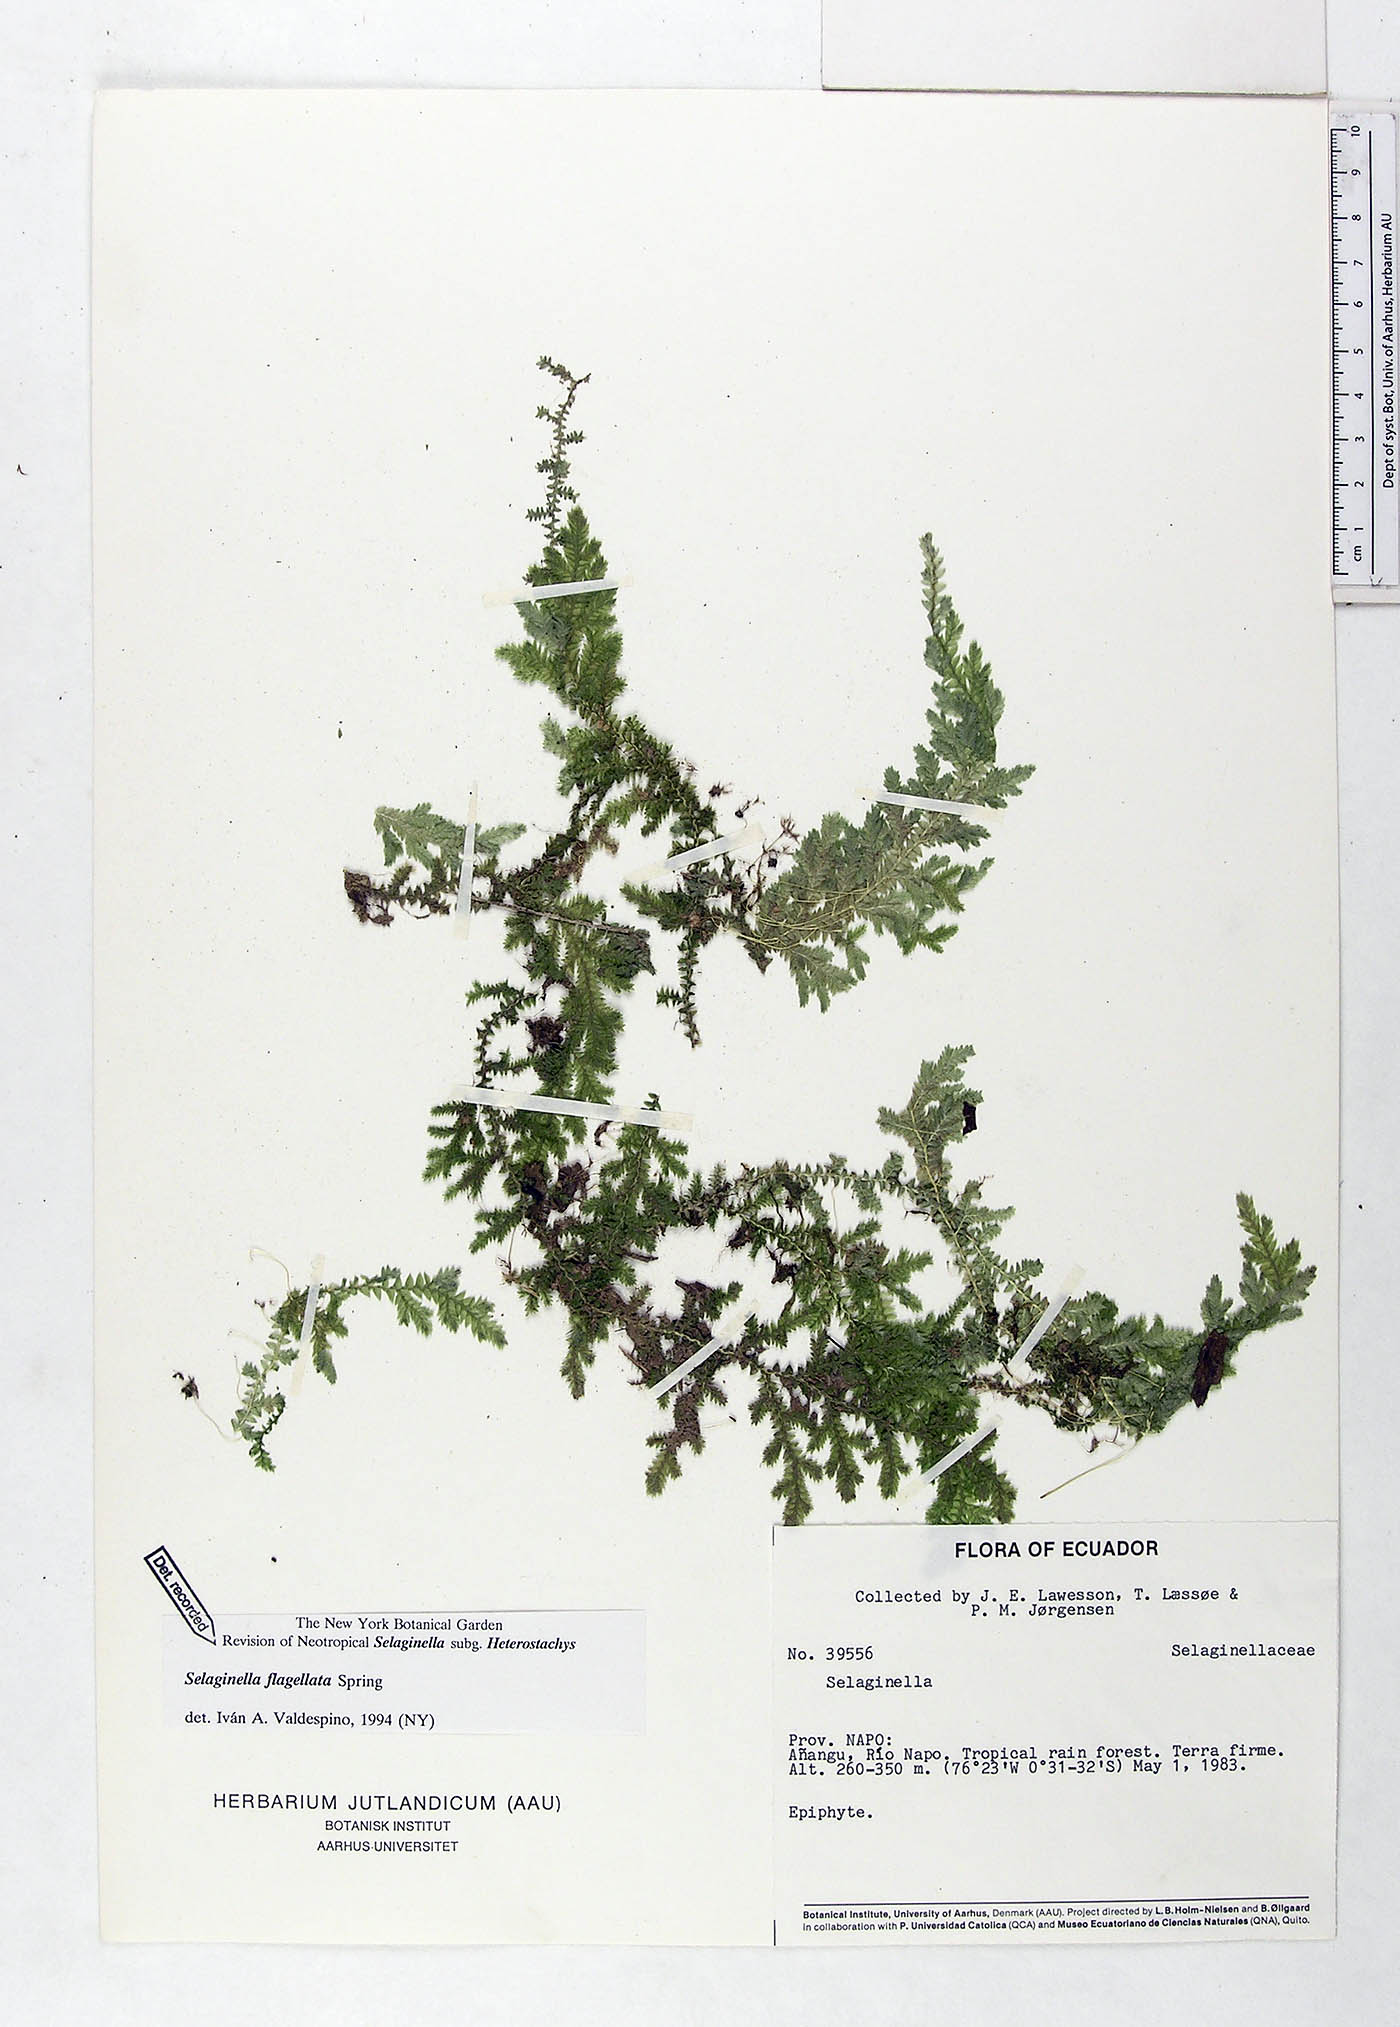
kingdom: Plantae
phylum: Tracheophyta
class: Lycopodiopsida
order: Selaginellales
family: Selaginellaceae
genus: Selaginella
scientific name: Selaginella flagellata
